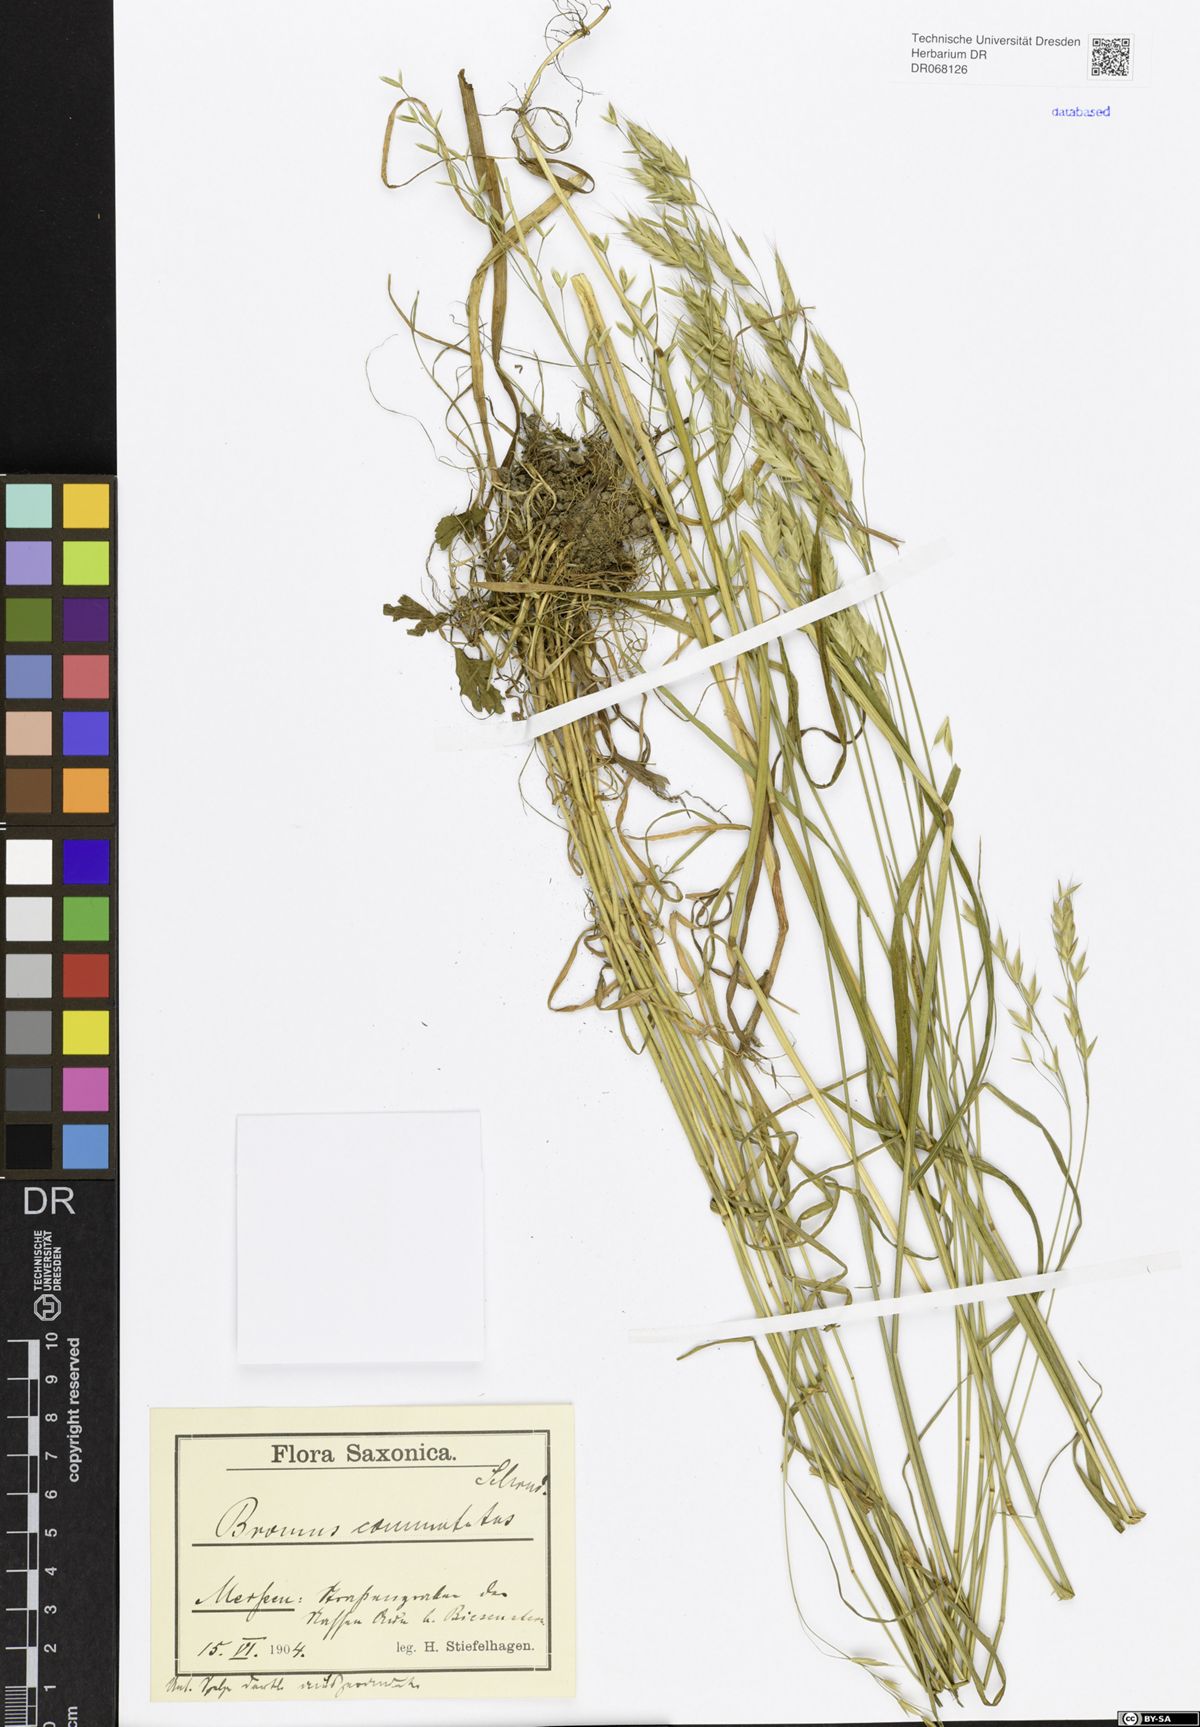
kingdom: Plantae
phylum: Tracheophyta
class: Liliopsida
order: Poales
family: Poaceae
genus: Bromus
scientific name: Bromus commutatus
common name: Meadow brome
